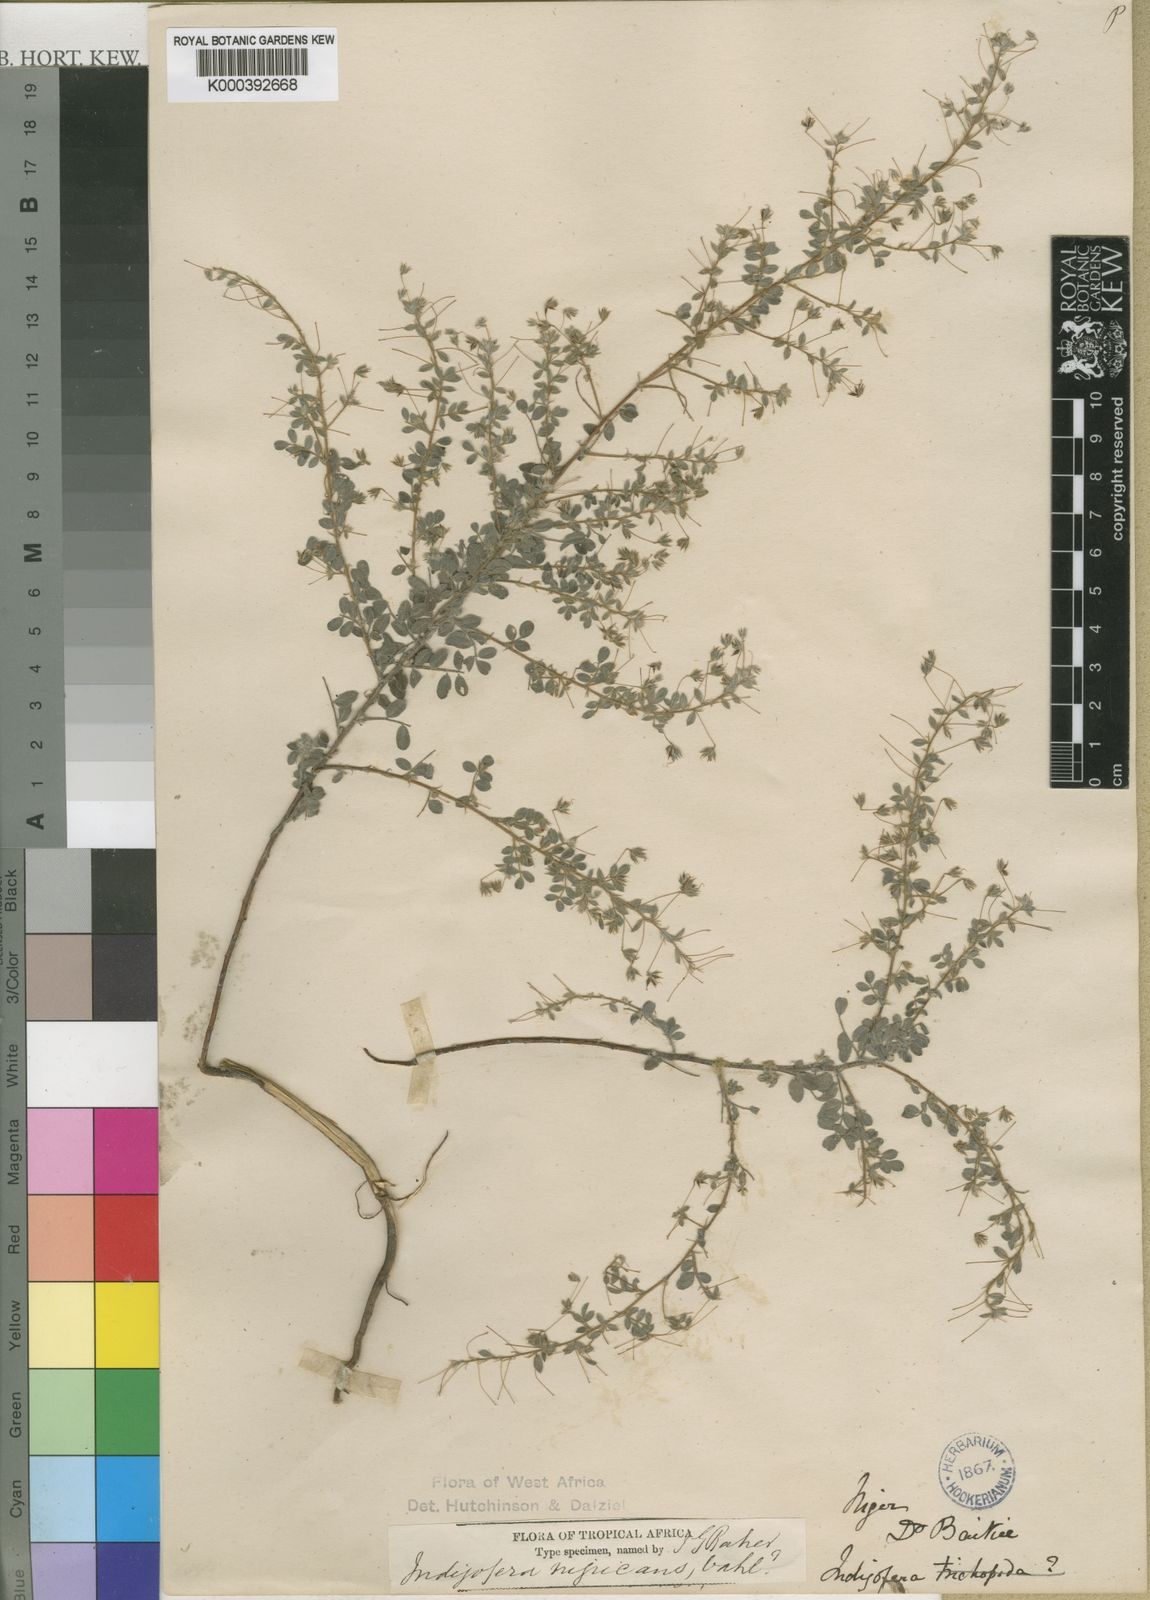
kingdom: Plantae
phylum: Tracheophyta
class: Magnoliopsida
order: Fabales
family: Fabaceae
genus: Indigofera
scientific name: Indigofera latisepala
